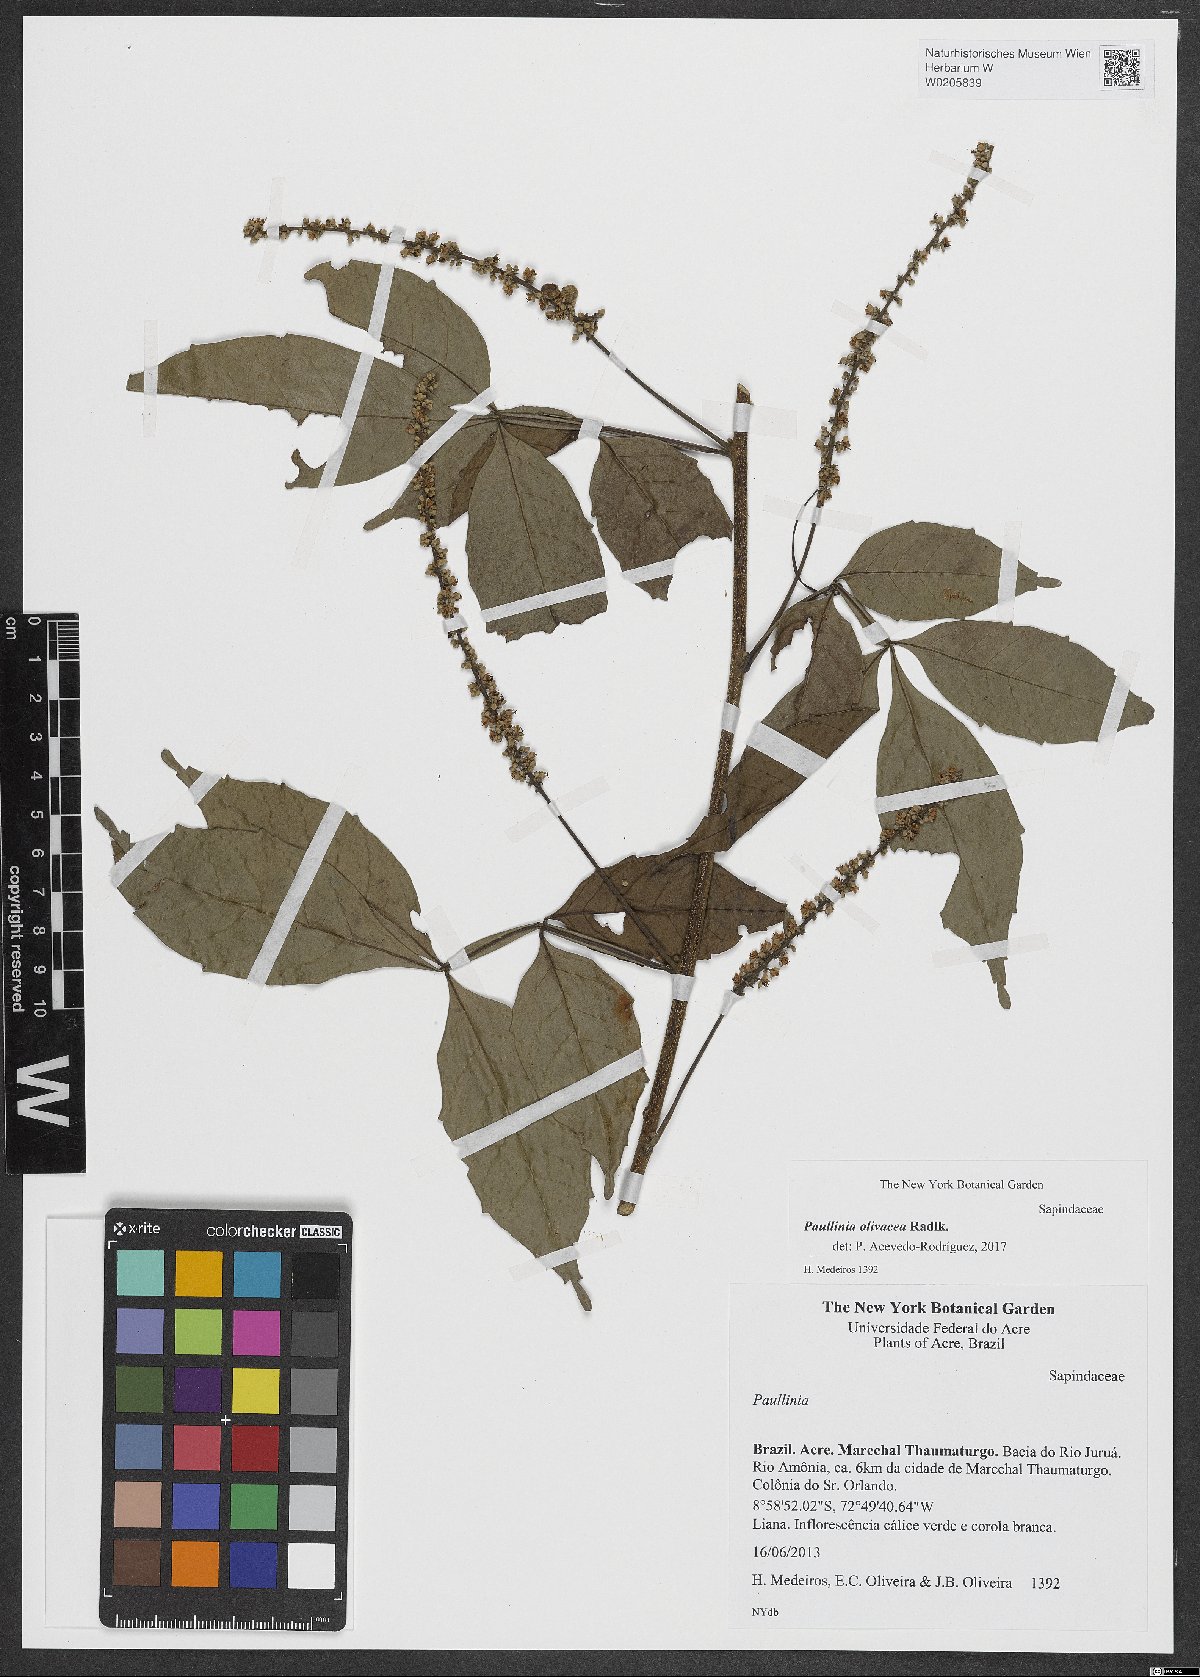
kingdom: Plantae
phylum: Tracheophyta
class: Magnoliopsida
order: Sapindales
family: Sapindaceae
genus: Paullinia
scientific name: Paullinia pterophylla
